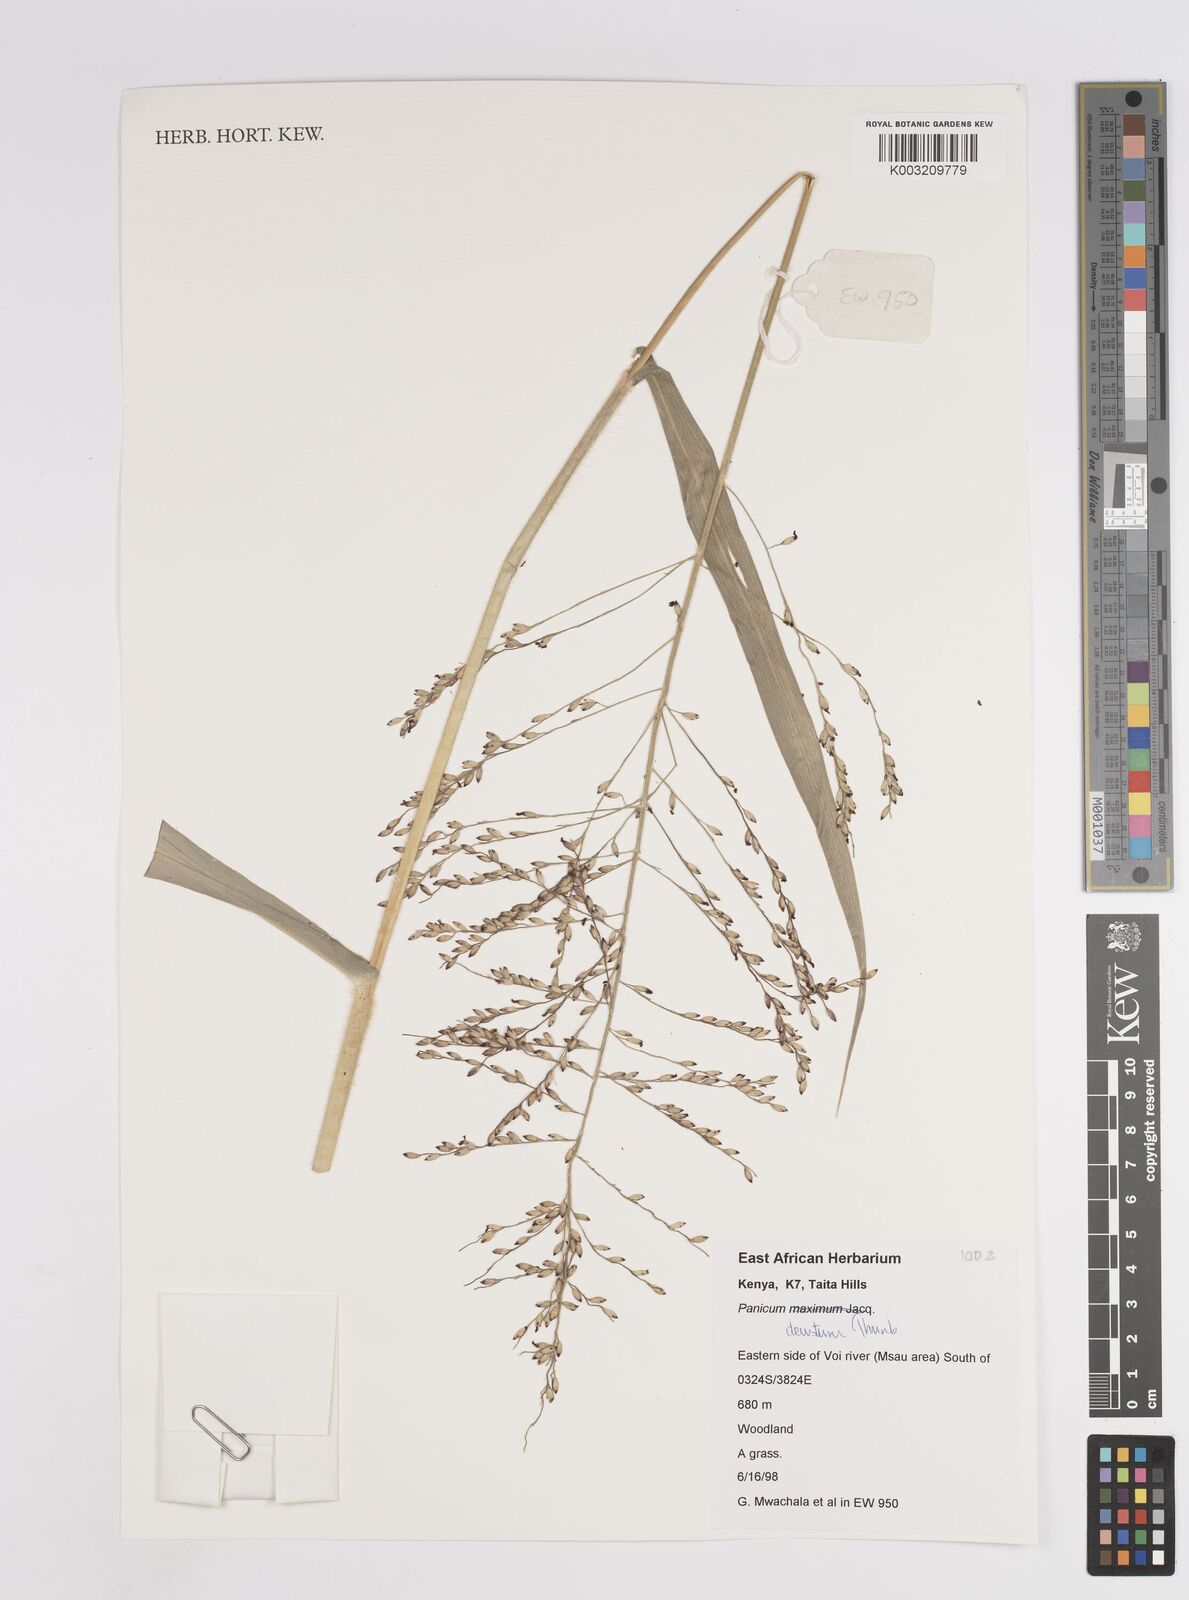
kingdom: Plantae
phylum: Tracheophyta
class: Liliopsida
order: Poales
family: Poaceae
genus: Panicum
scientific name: Panicum deustum
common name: Reed panicum
